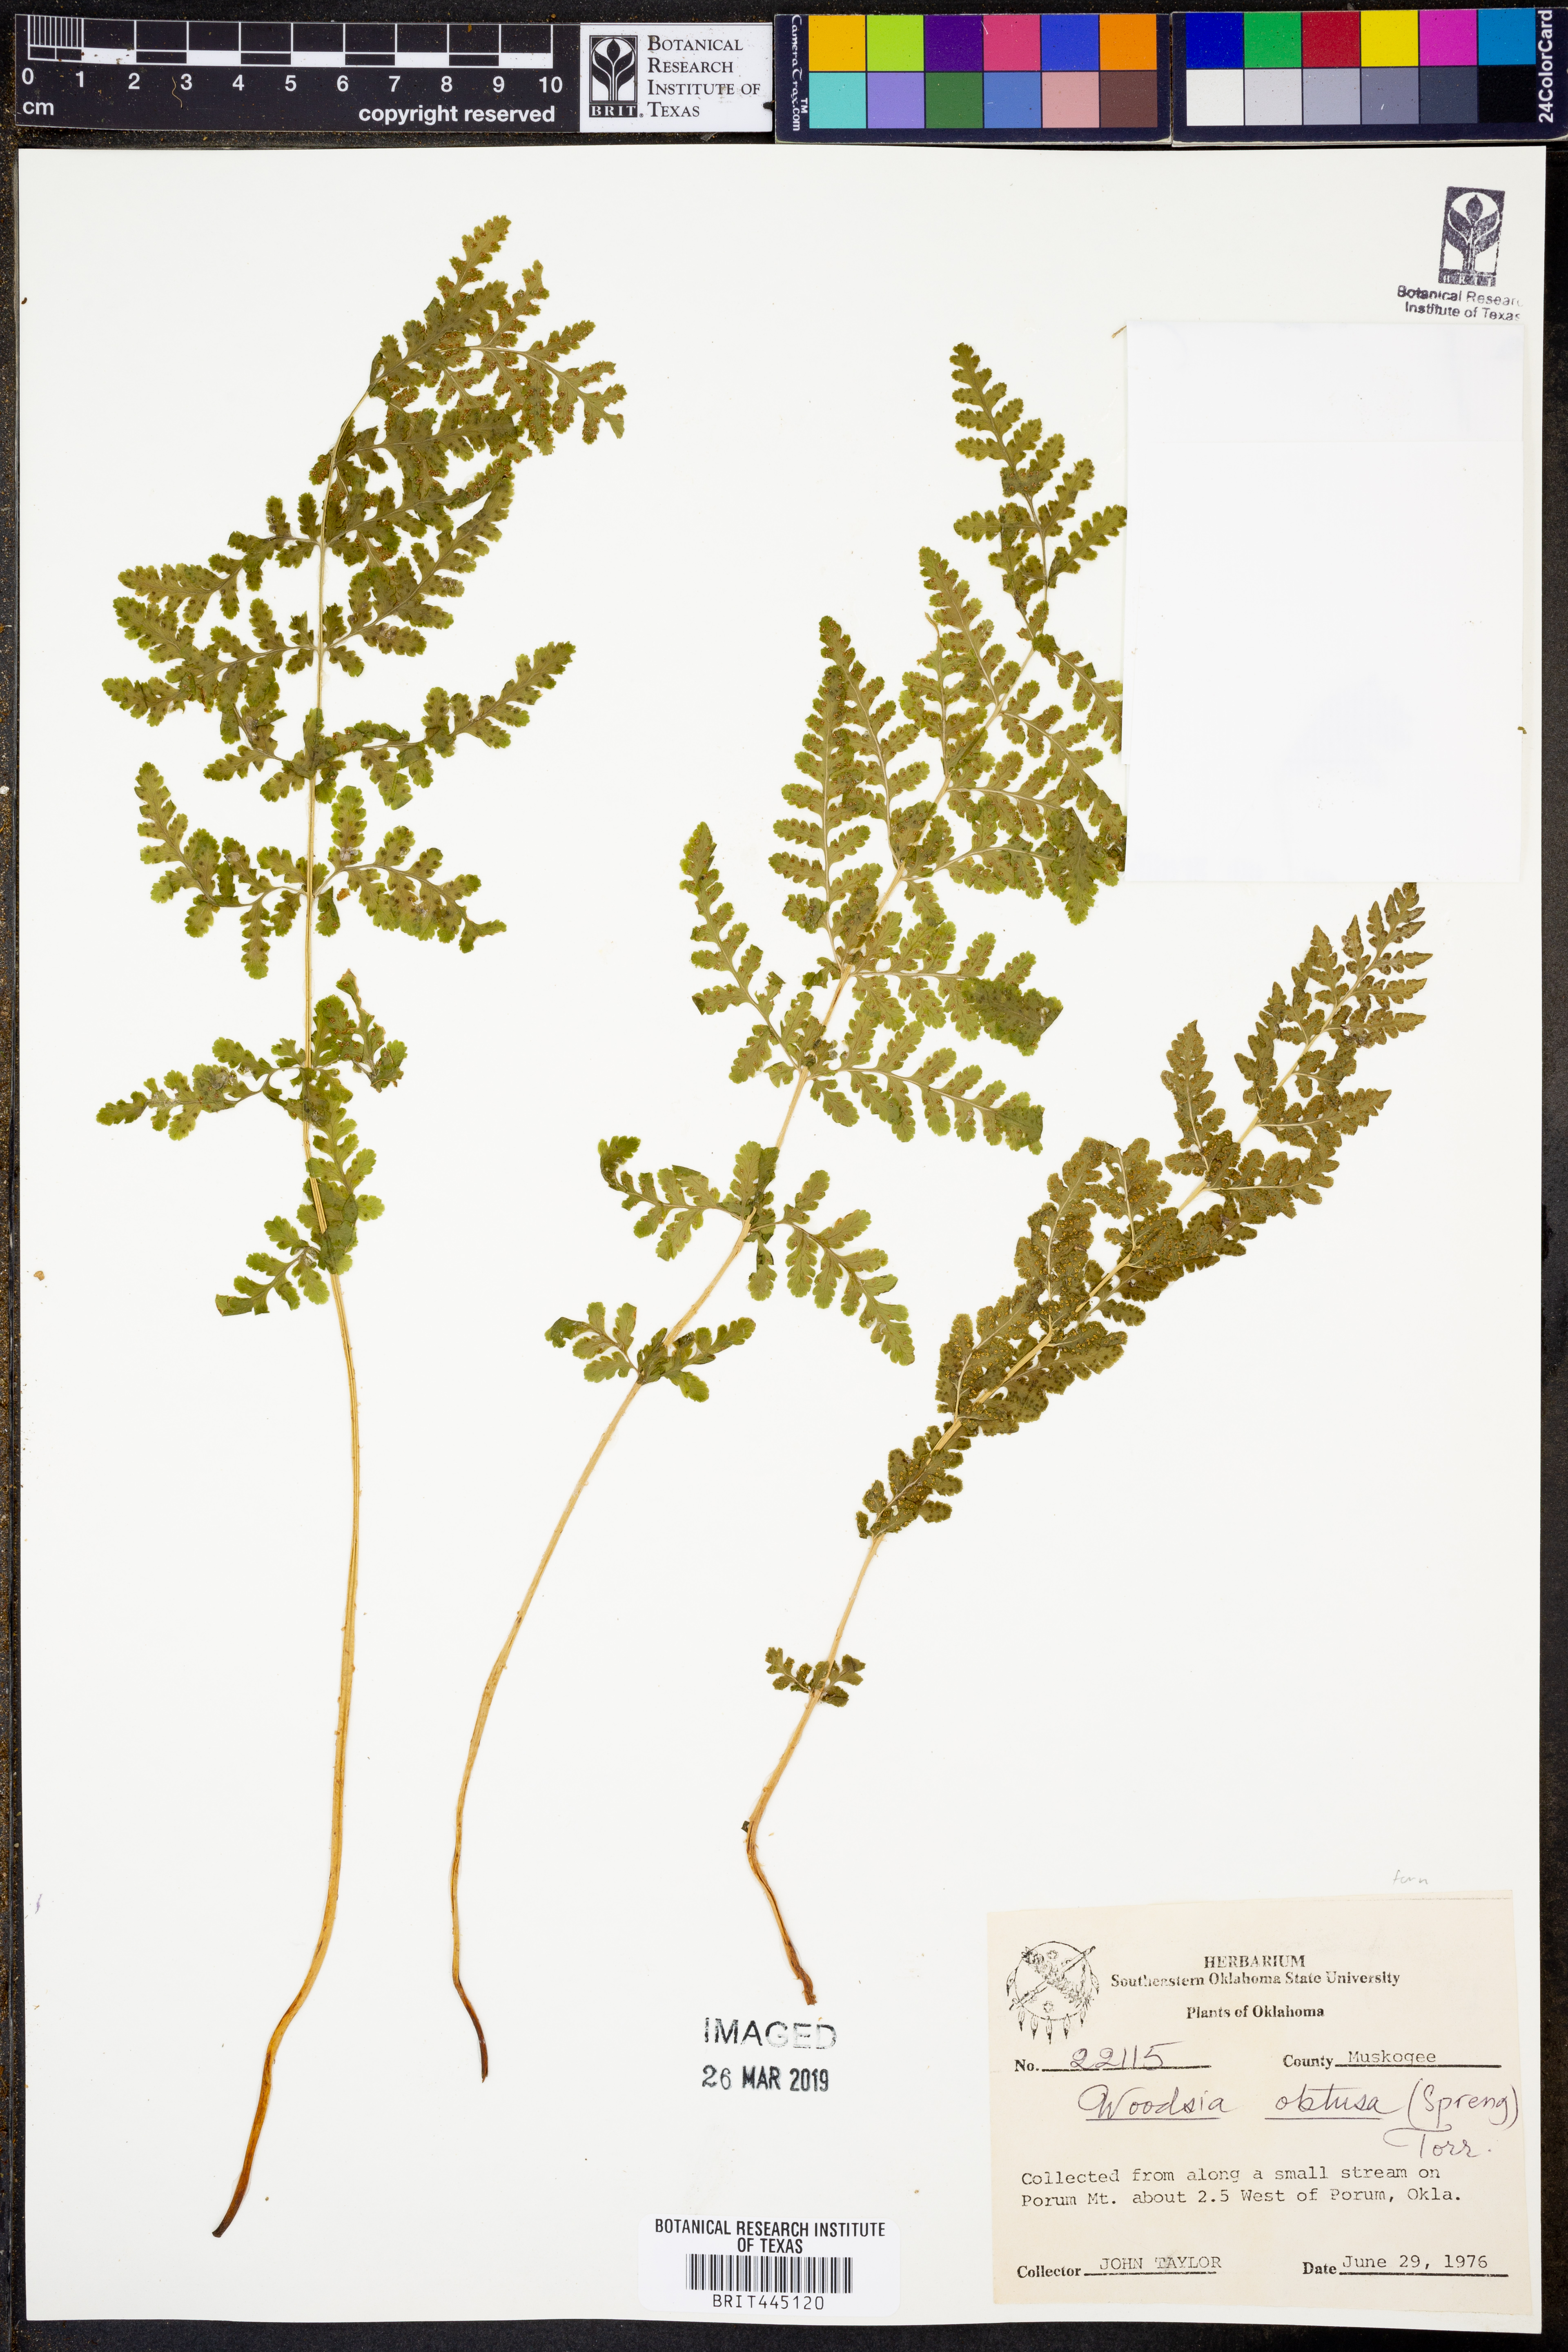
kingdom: Plantae
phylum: Tracheophyta
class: Polypodiopsida
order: Polypodiales
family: Woodsiaceae
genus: Physematium
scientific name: Physematium obtusum
